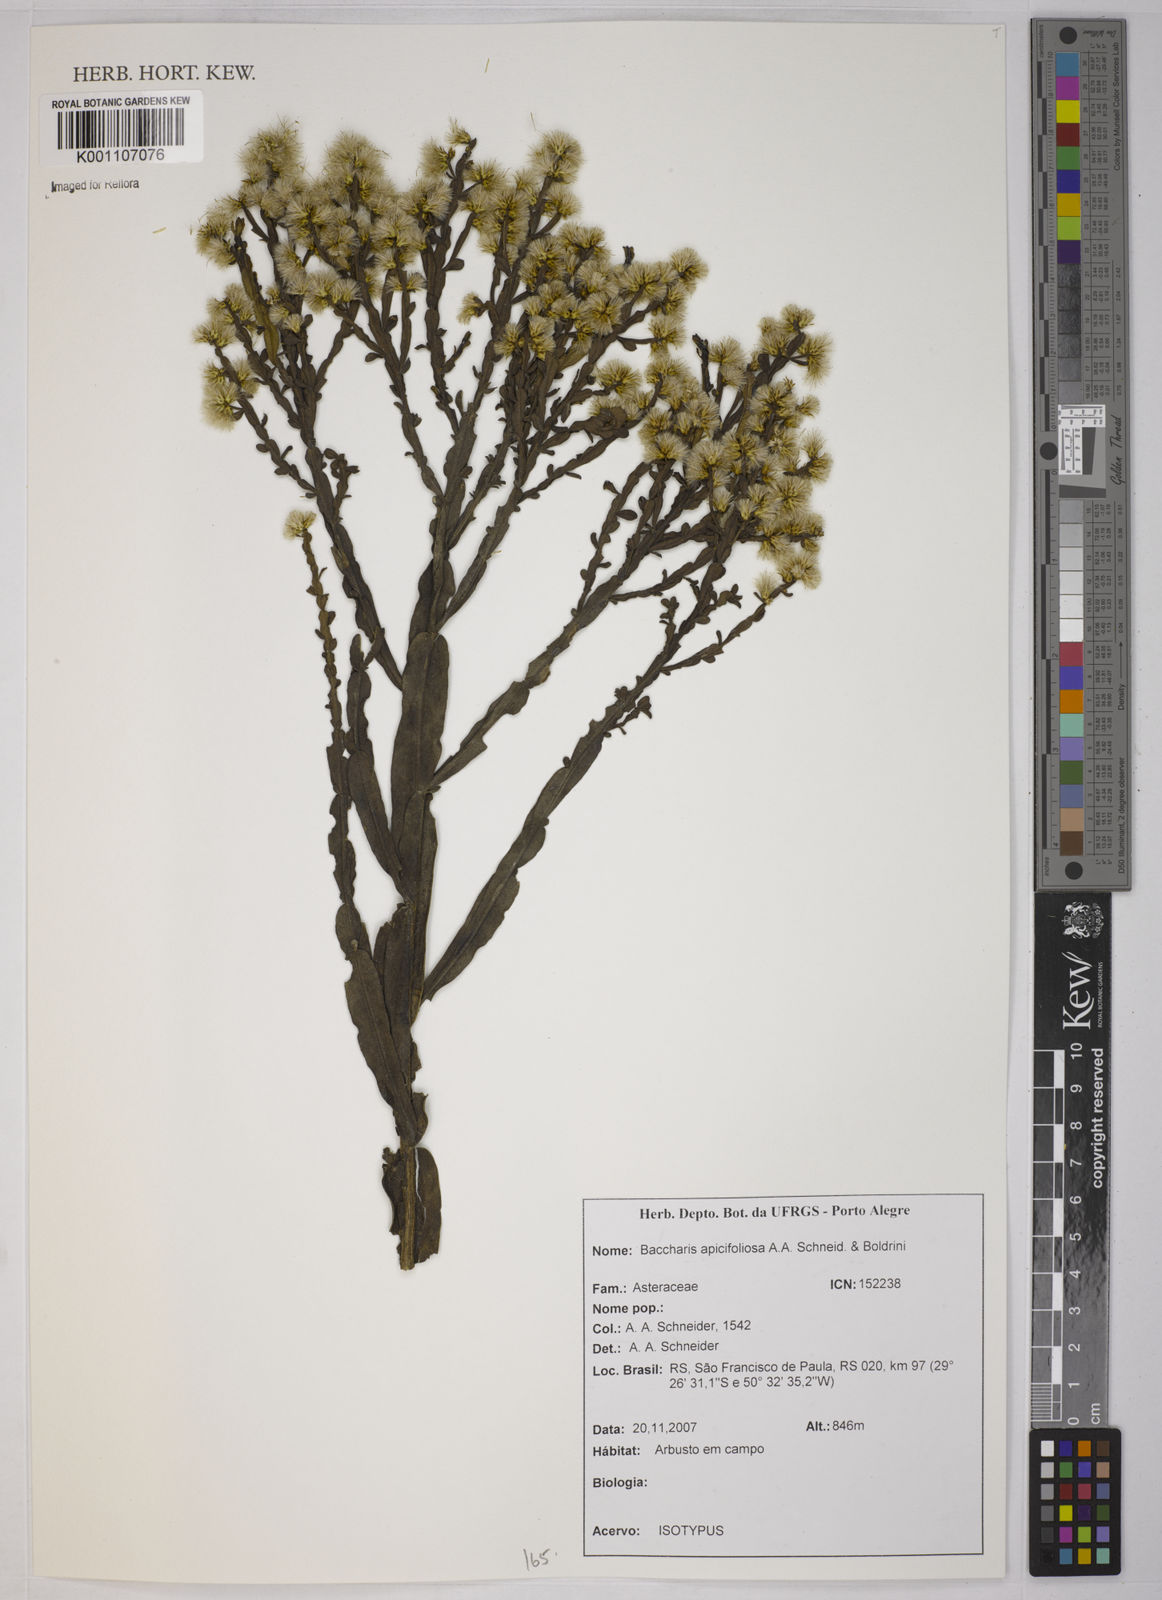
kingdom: Plantae
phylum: Tracheophyta
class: Magnoliopsida
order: Asterales
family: Asteraceae
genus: Baccharis
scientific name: Baccharis apicifoliosa
